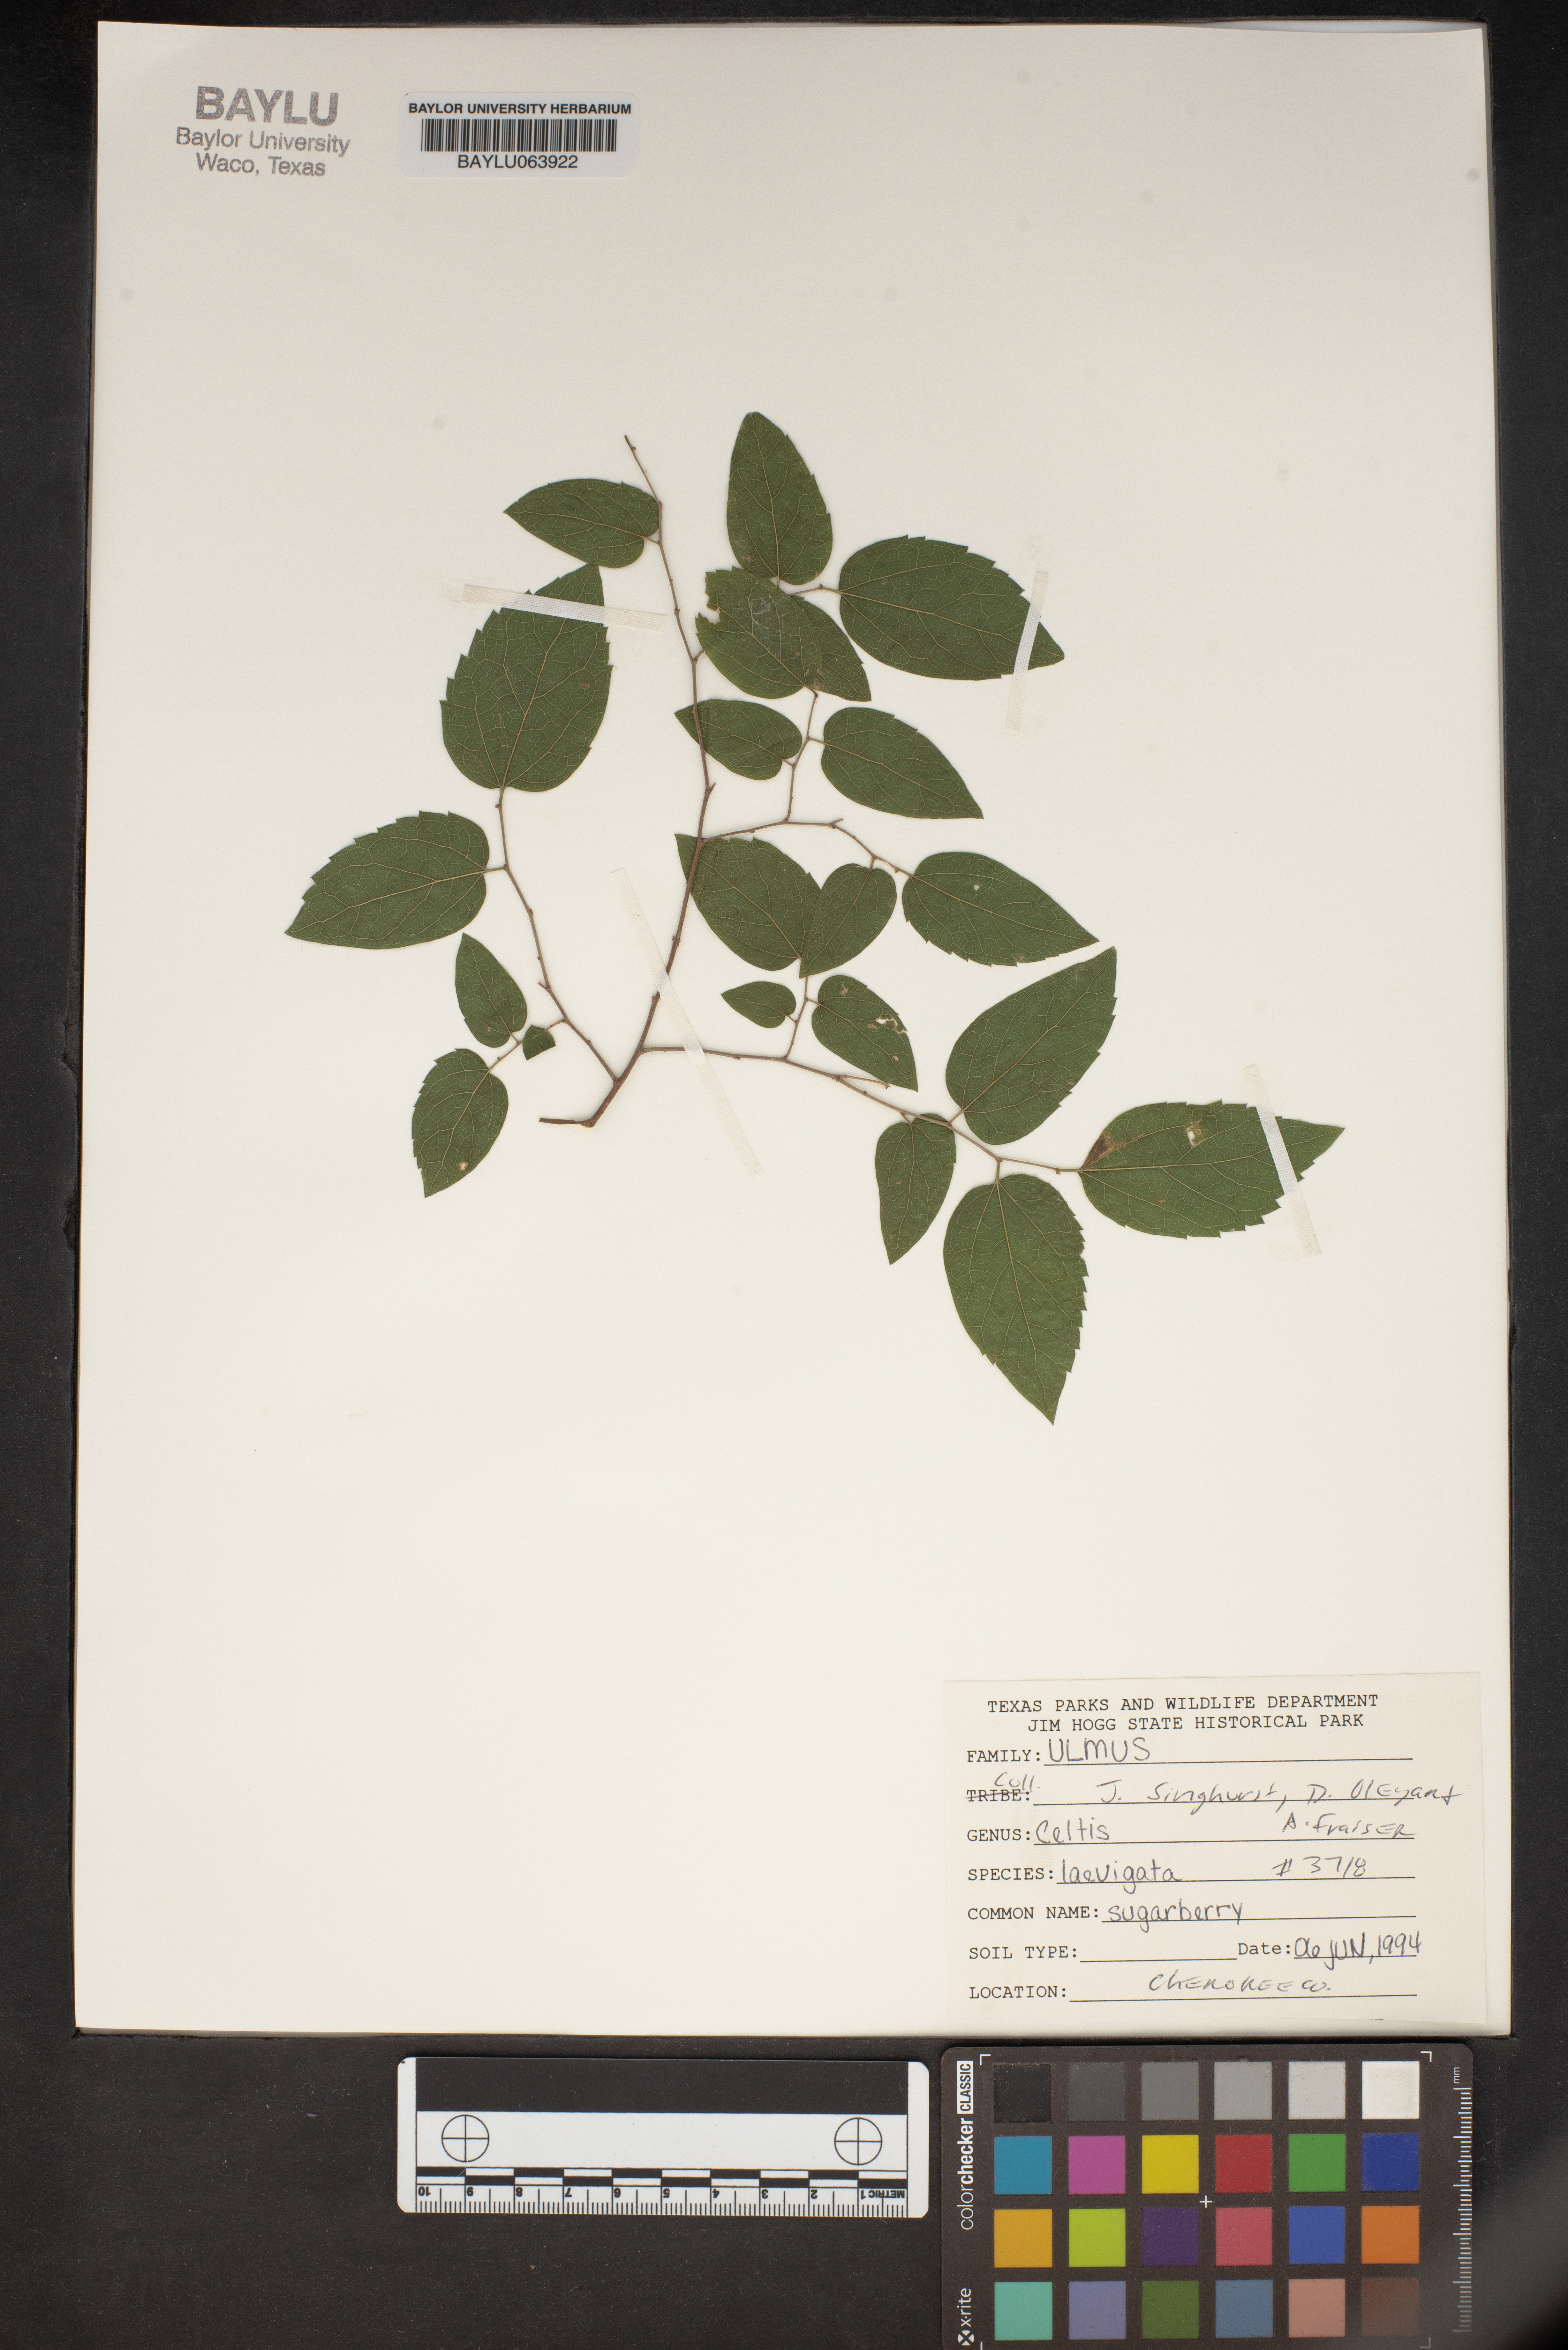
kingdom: Plantae
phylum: Tracheophyta
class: Magnoliopsida
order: Rosales
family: Cannabaceae
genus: Celtis
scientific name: Celtis laevigata
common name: Sugarberry
